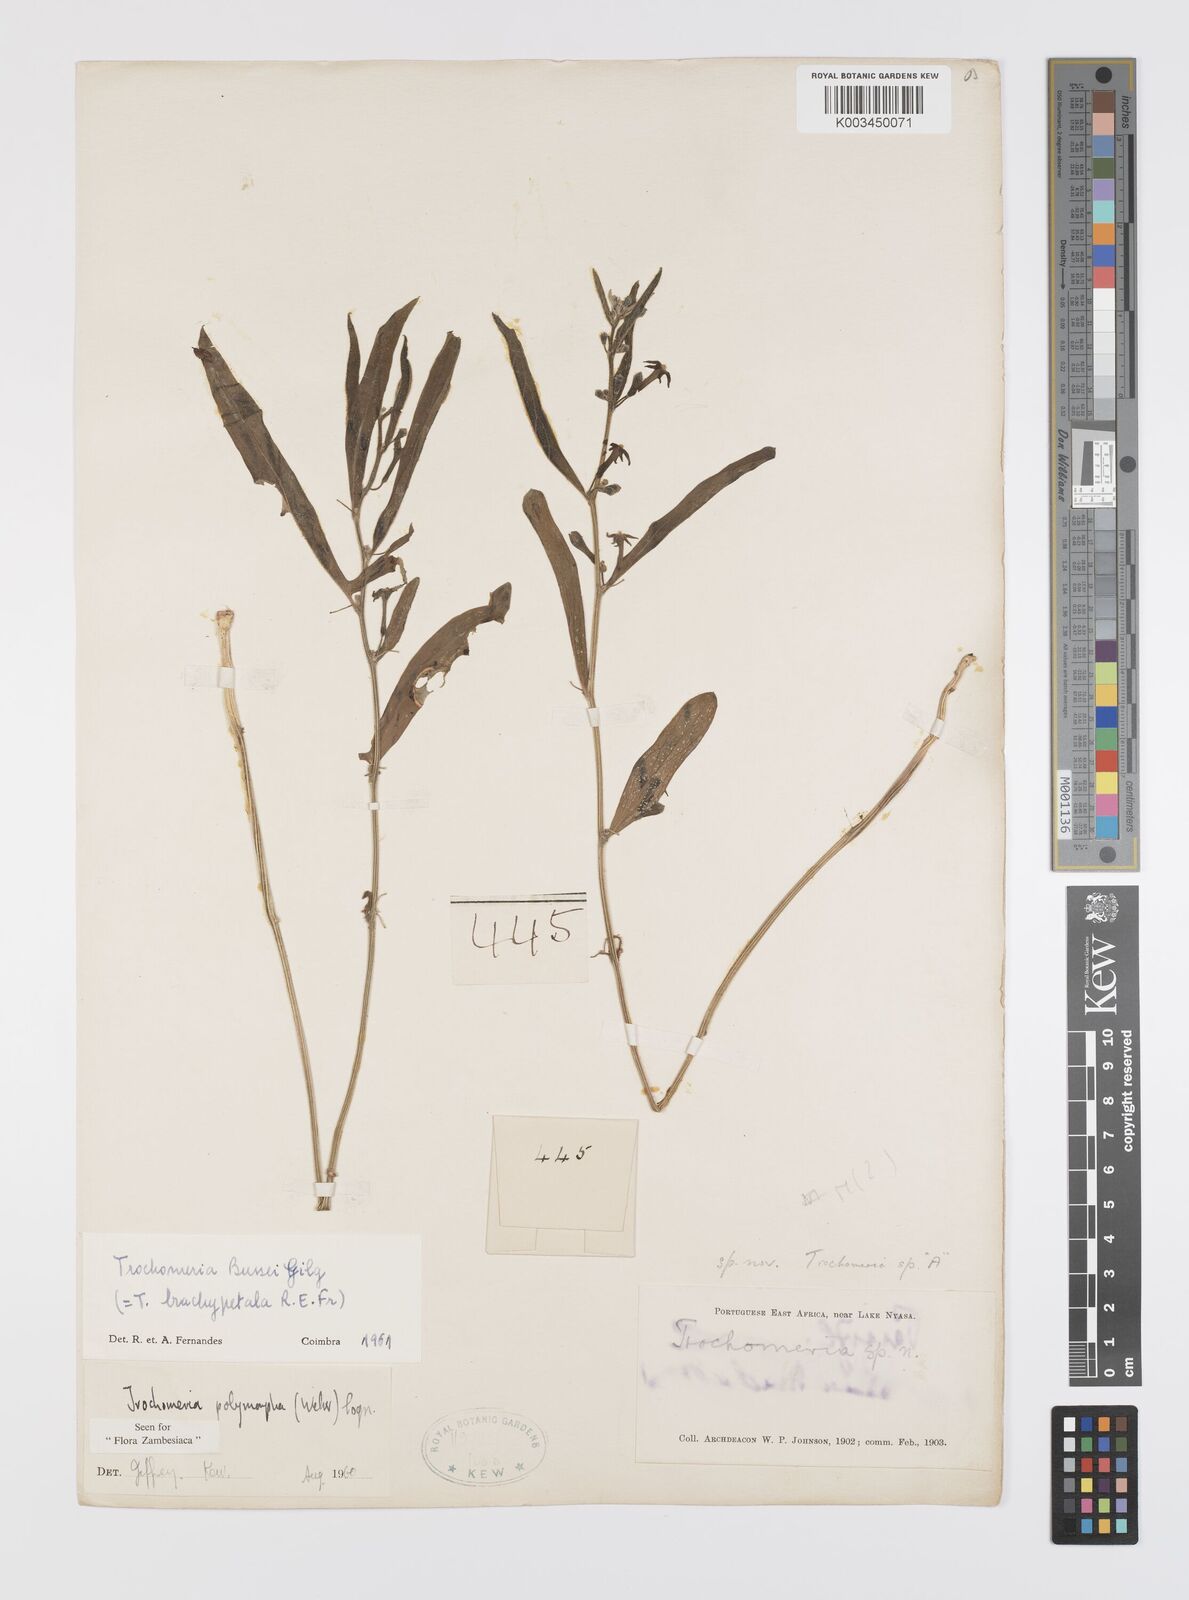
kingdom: Plantae
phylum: Tracheophyta
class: Magnoliopsida
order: Cucurbitales
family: Cucurbitaceae
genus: Trochomeria
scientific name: Trochomeria polymorpha
